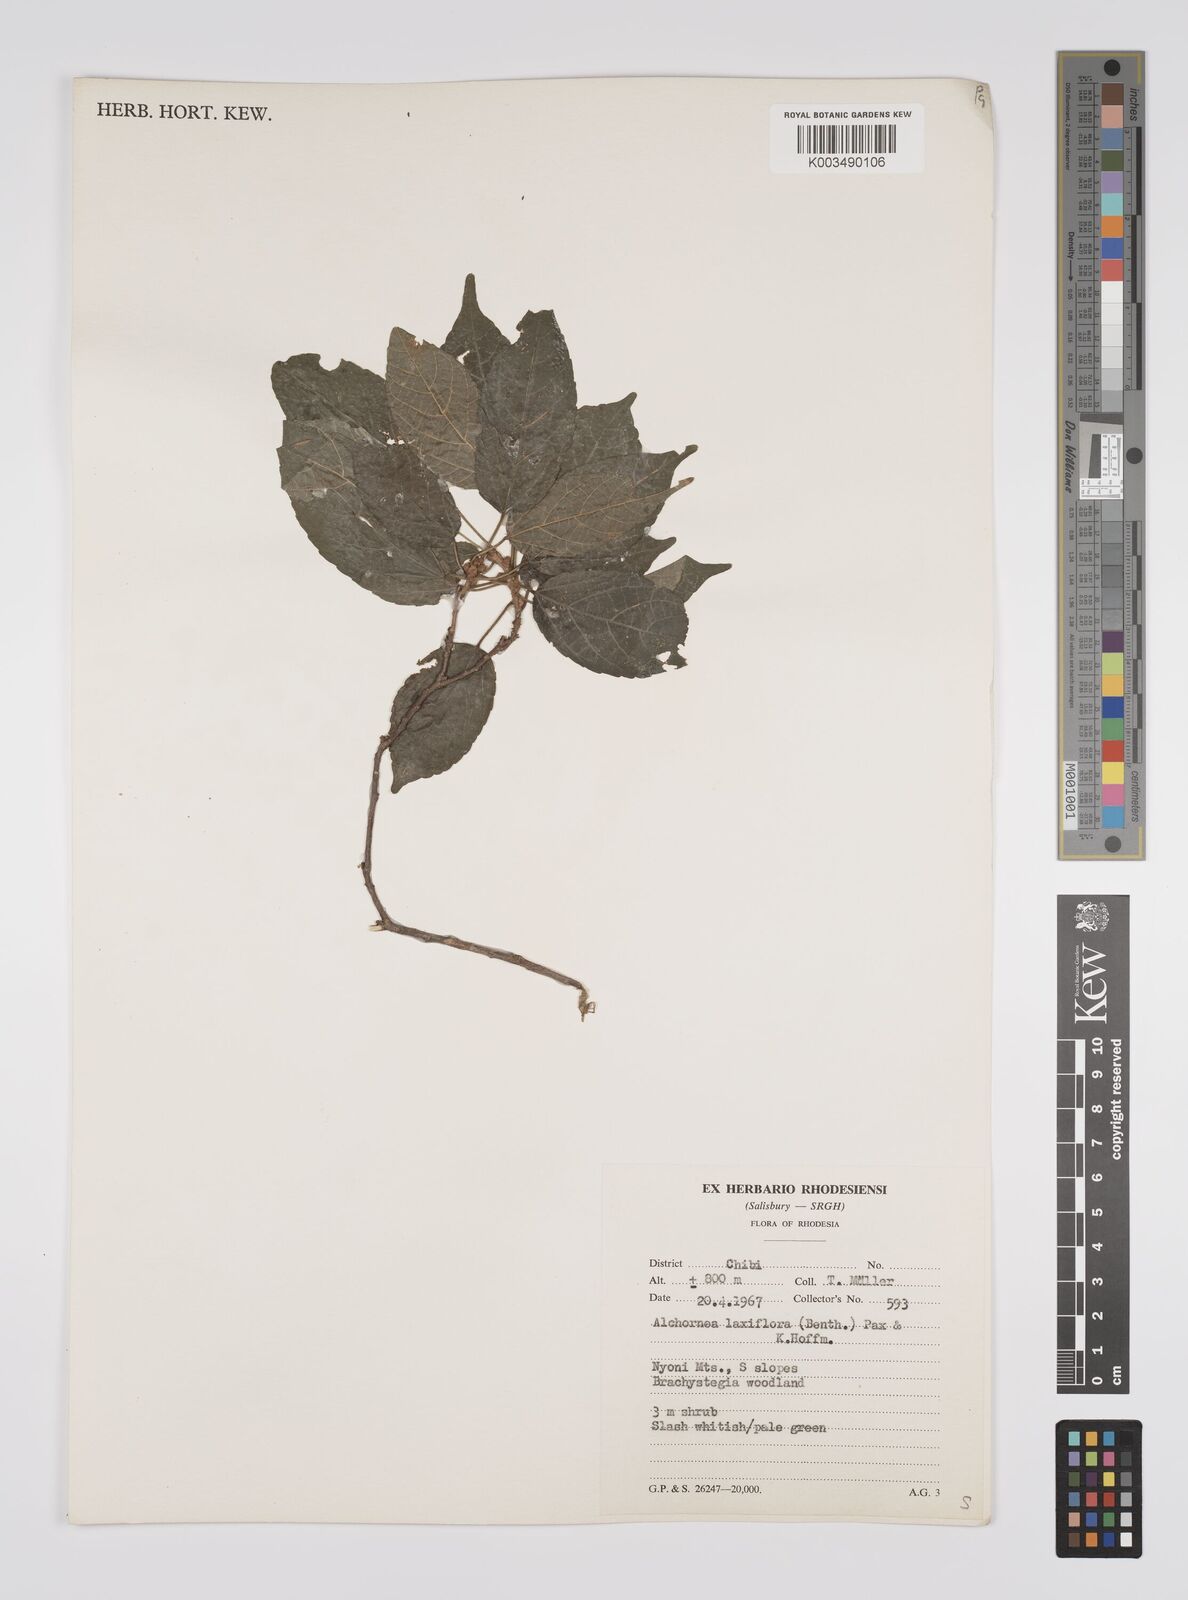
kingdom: Plantae
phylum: Tracheophyta
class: Magnoliopsida
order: Malpighiales
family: Euphorbiaceae
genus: Alchornea
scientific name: Alchornea laxiflora
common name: Lowveld bead-string
